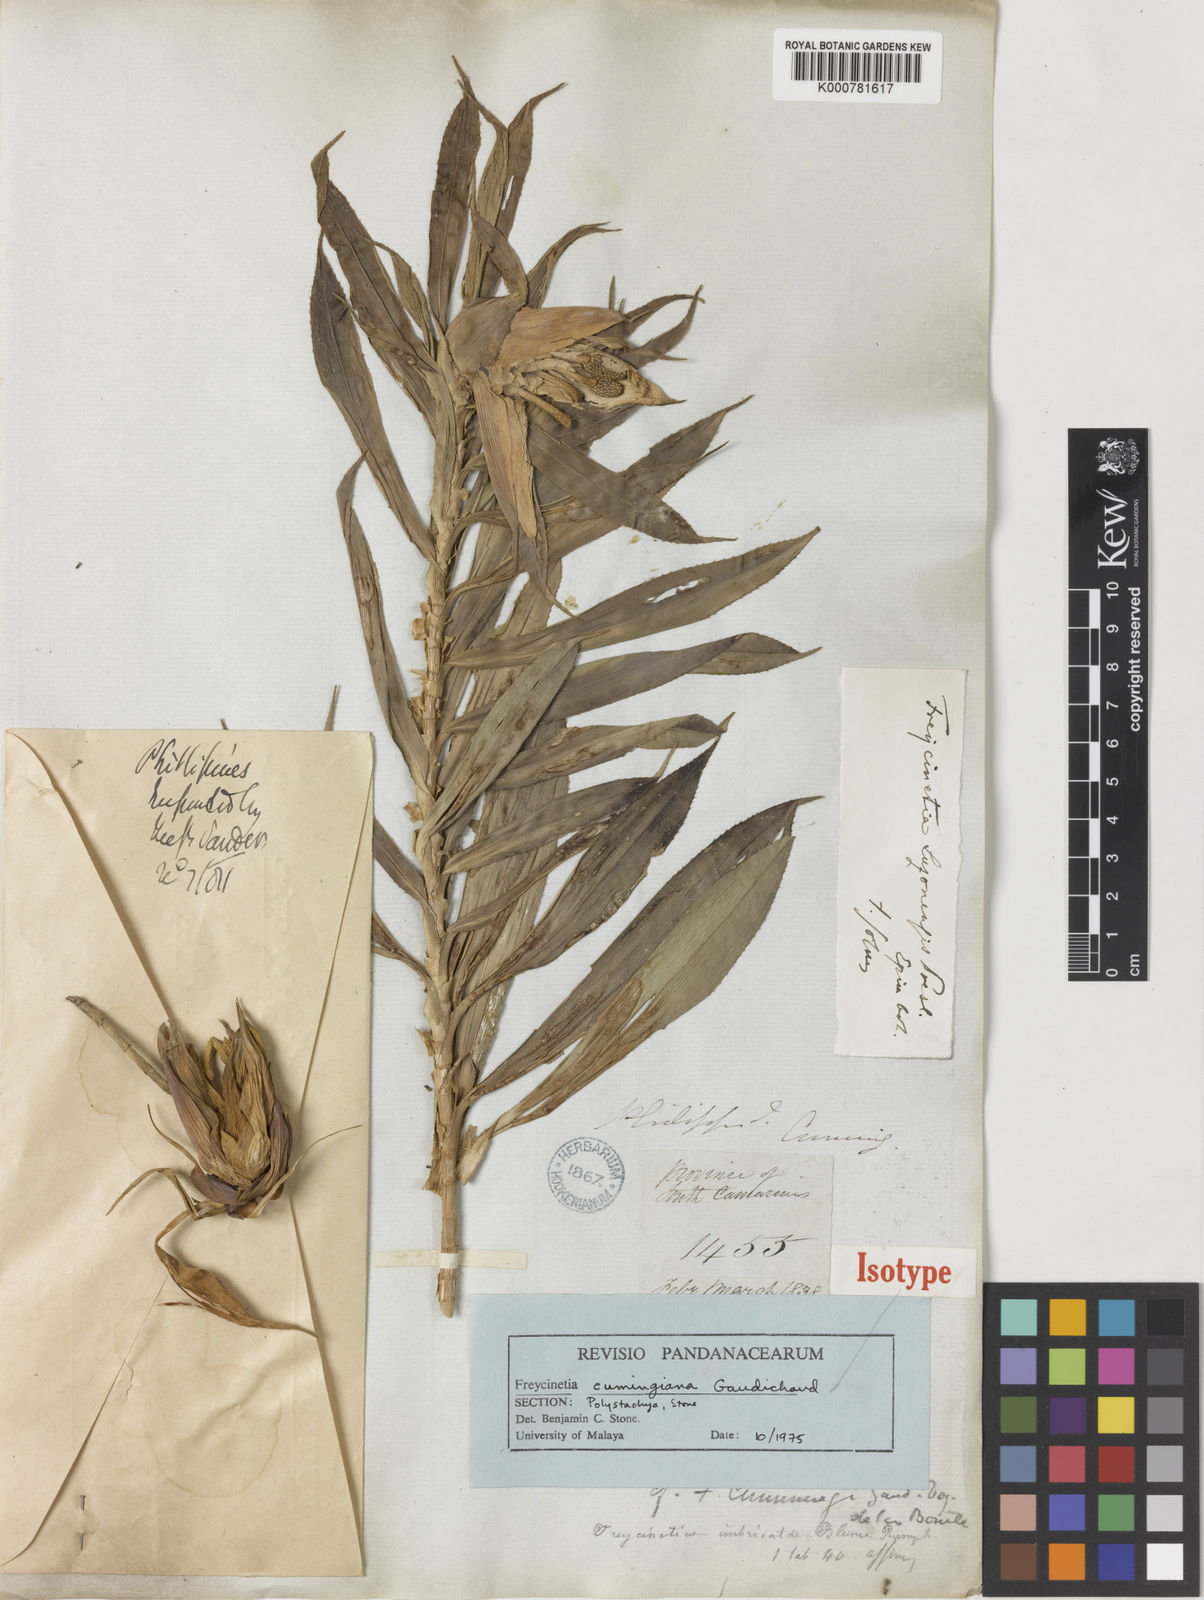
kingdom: Plantae
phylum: Tracheophyta
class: Liliopsida
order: Pandanales
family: Pandanaceae
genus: Freycinetia
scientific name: Freycinetia
